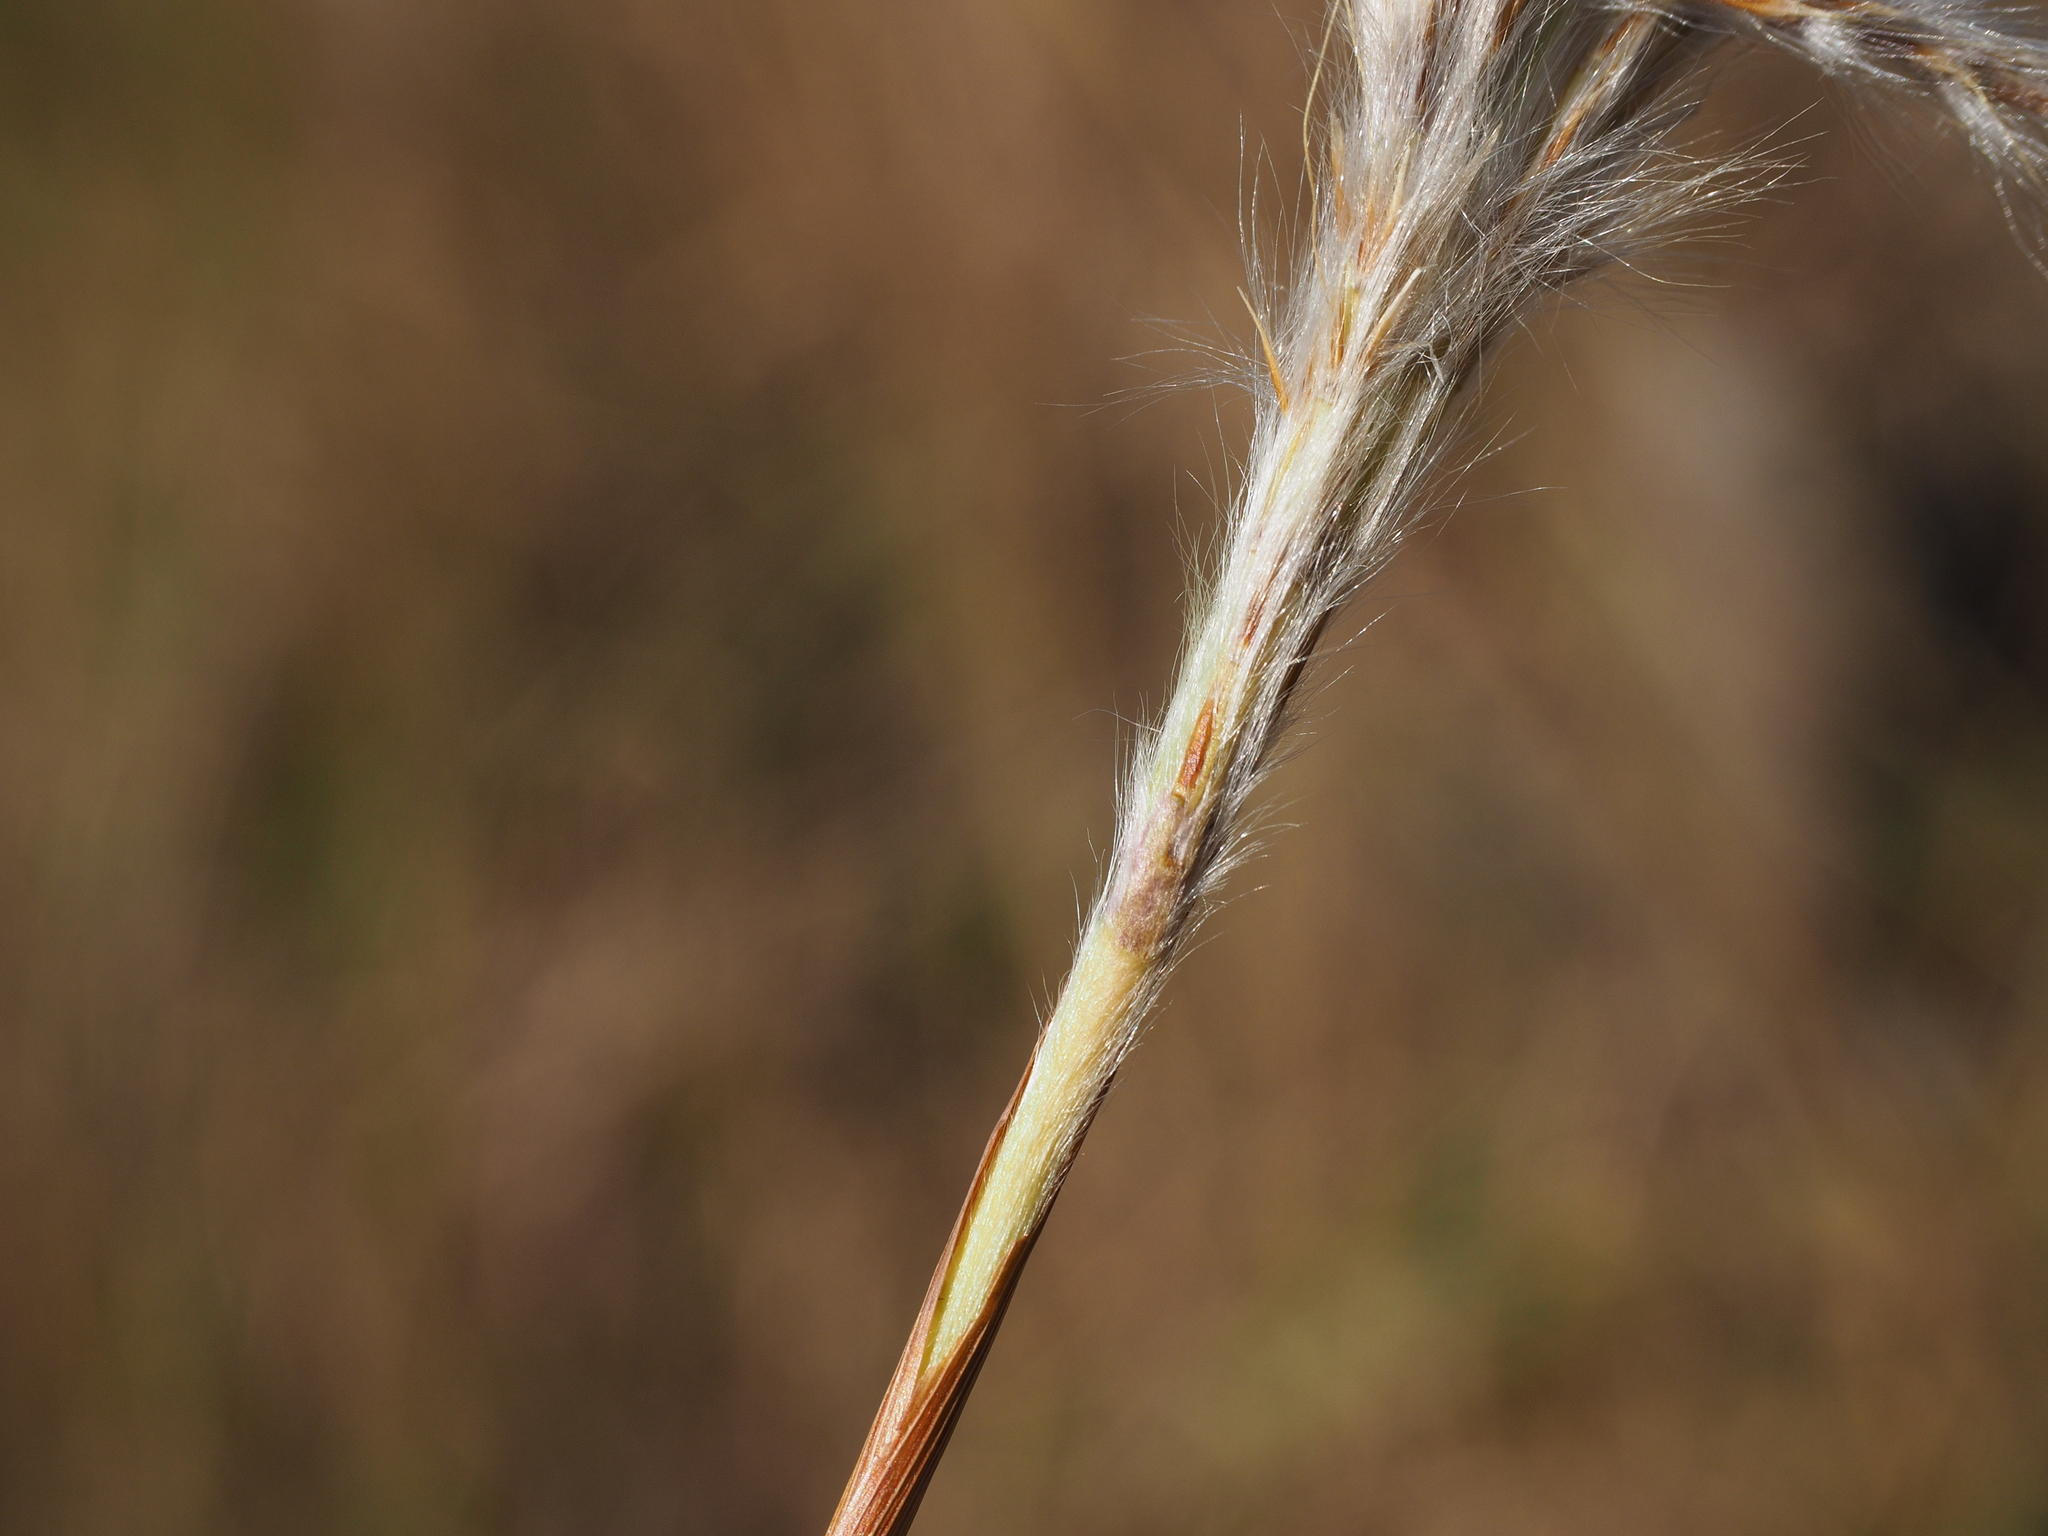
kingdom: Plantae
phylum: Tracheophyta
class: Liliopsida
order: Poales
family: Poaceae
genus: Saccharum
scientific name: Saccharum formosanum
